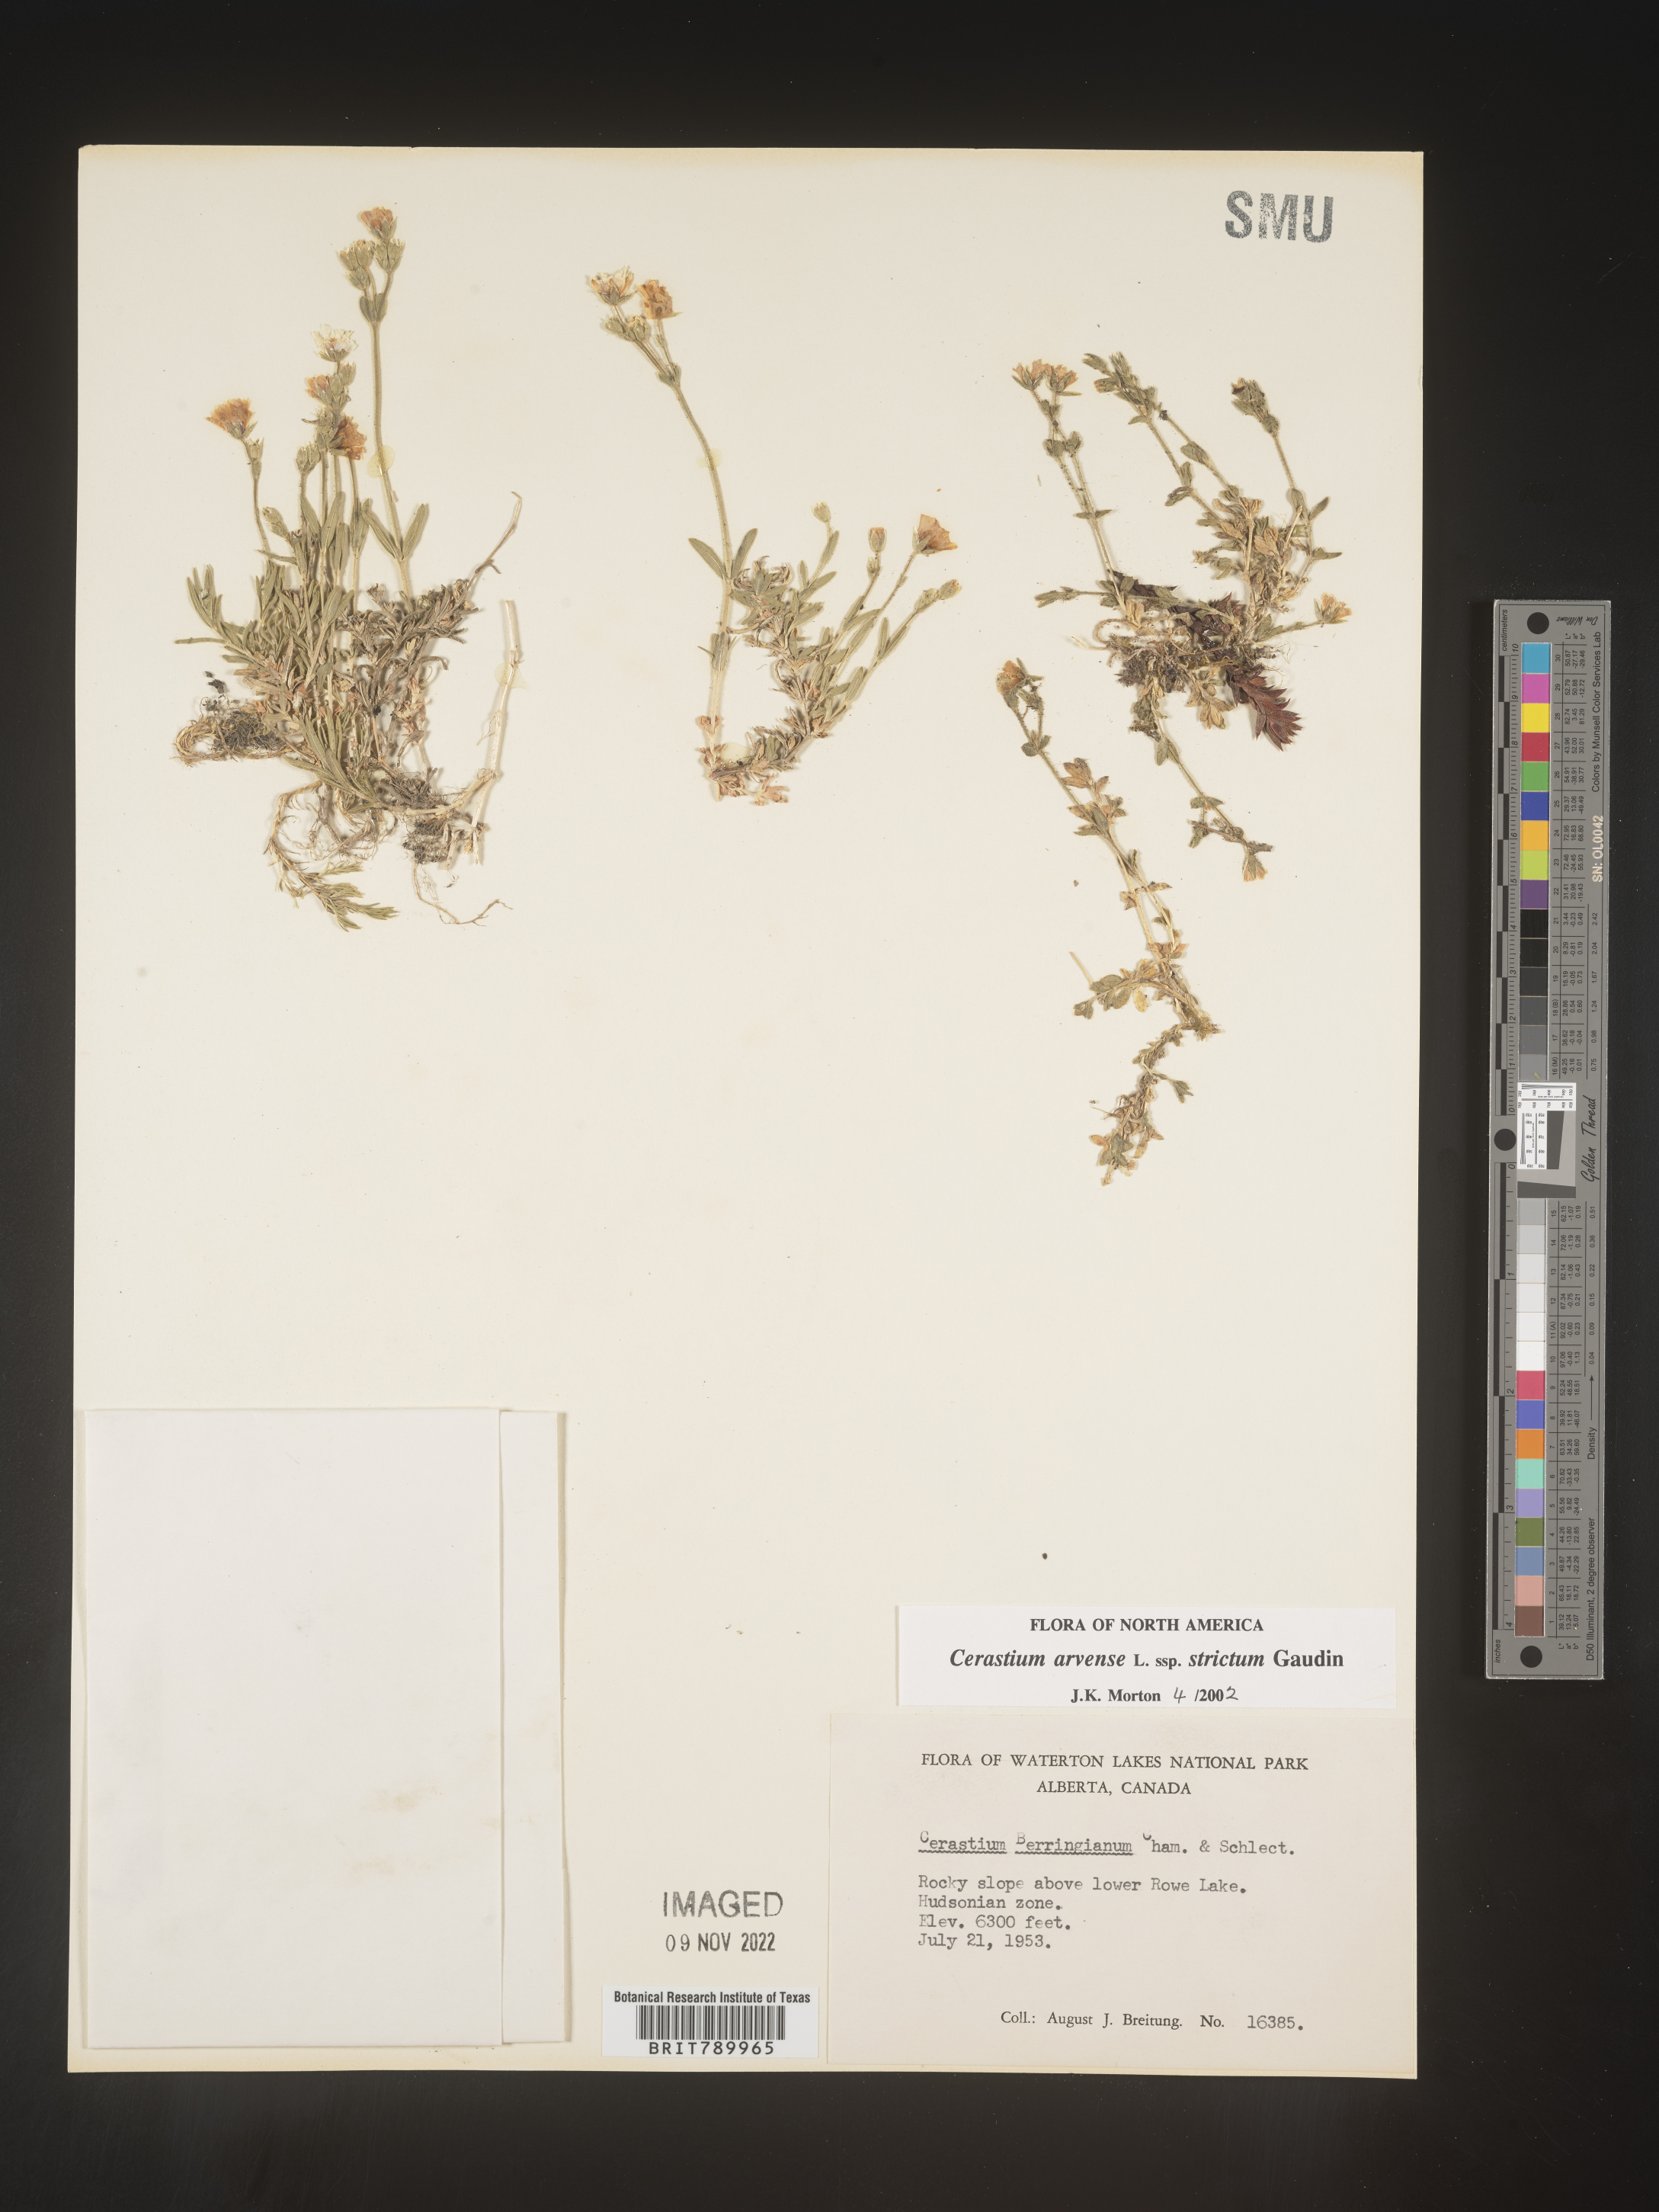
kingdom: Plantae
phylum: Tracheophyta
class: Magnoliopsida
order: Caryophyllales
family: Caryophyllaceae
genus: Cerastium
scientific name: Cerastium arvense
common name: Field mouse-ear
